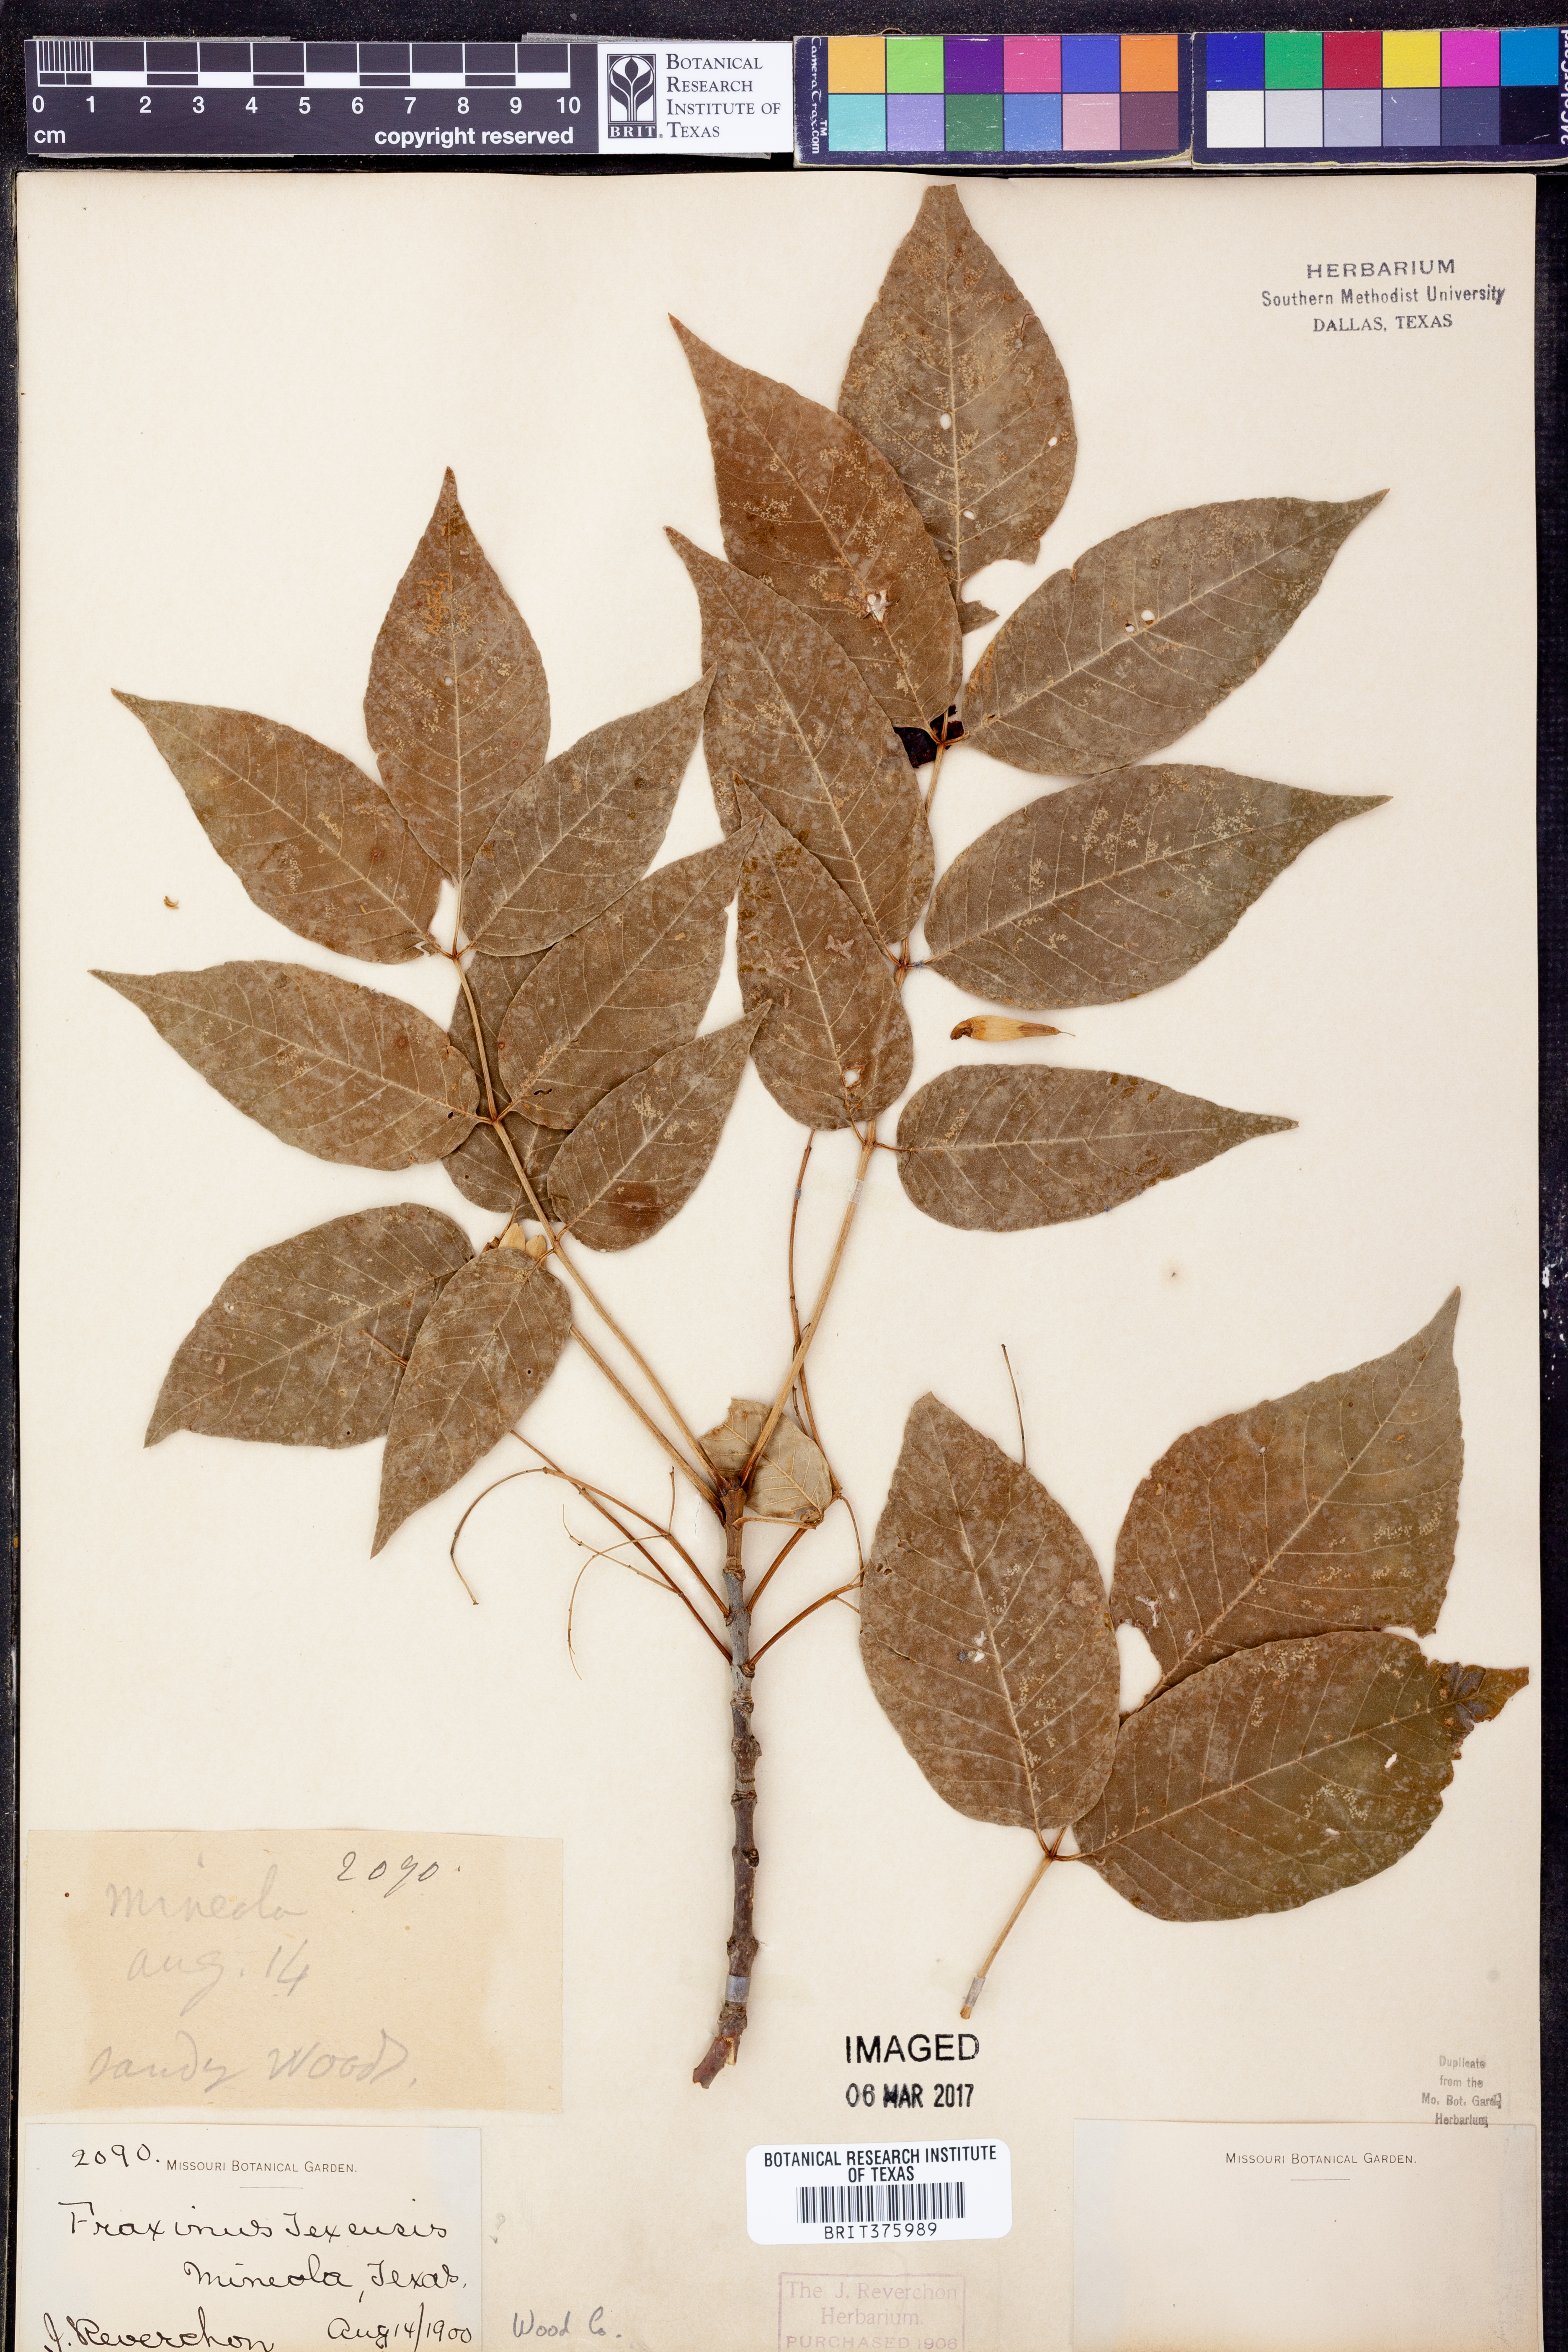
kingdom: Plantae
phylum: Tracheophyta
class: Magnoliopsida
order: Lamiales
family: Oleaceae
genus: Fraxinus
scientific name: Fraxinus albicans
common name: Texas ash
